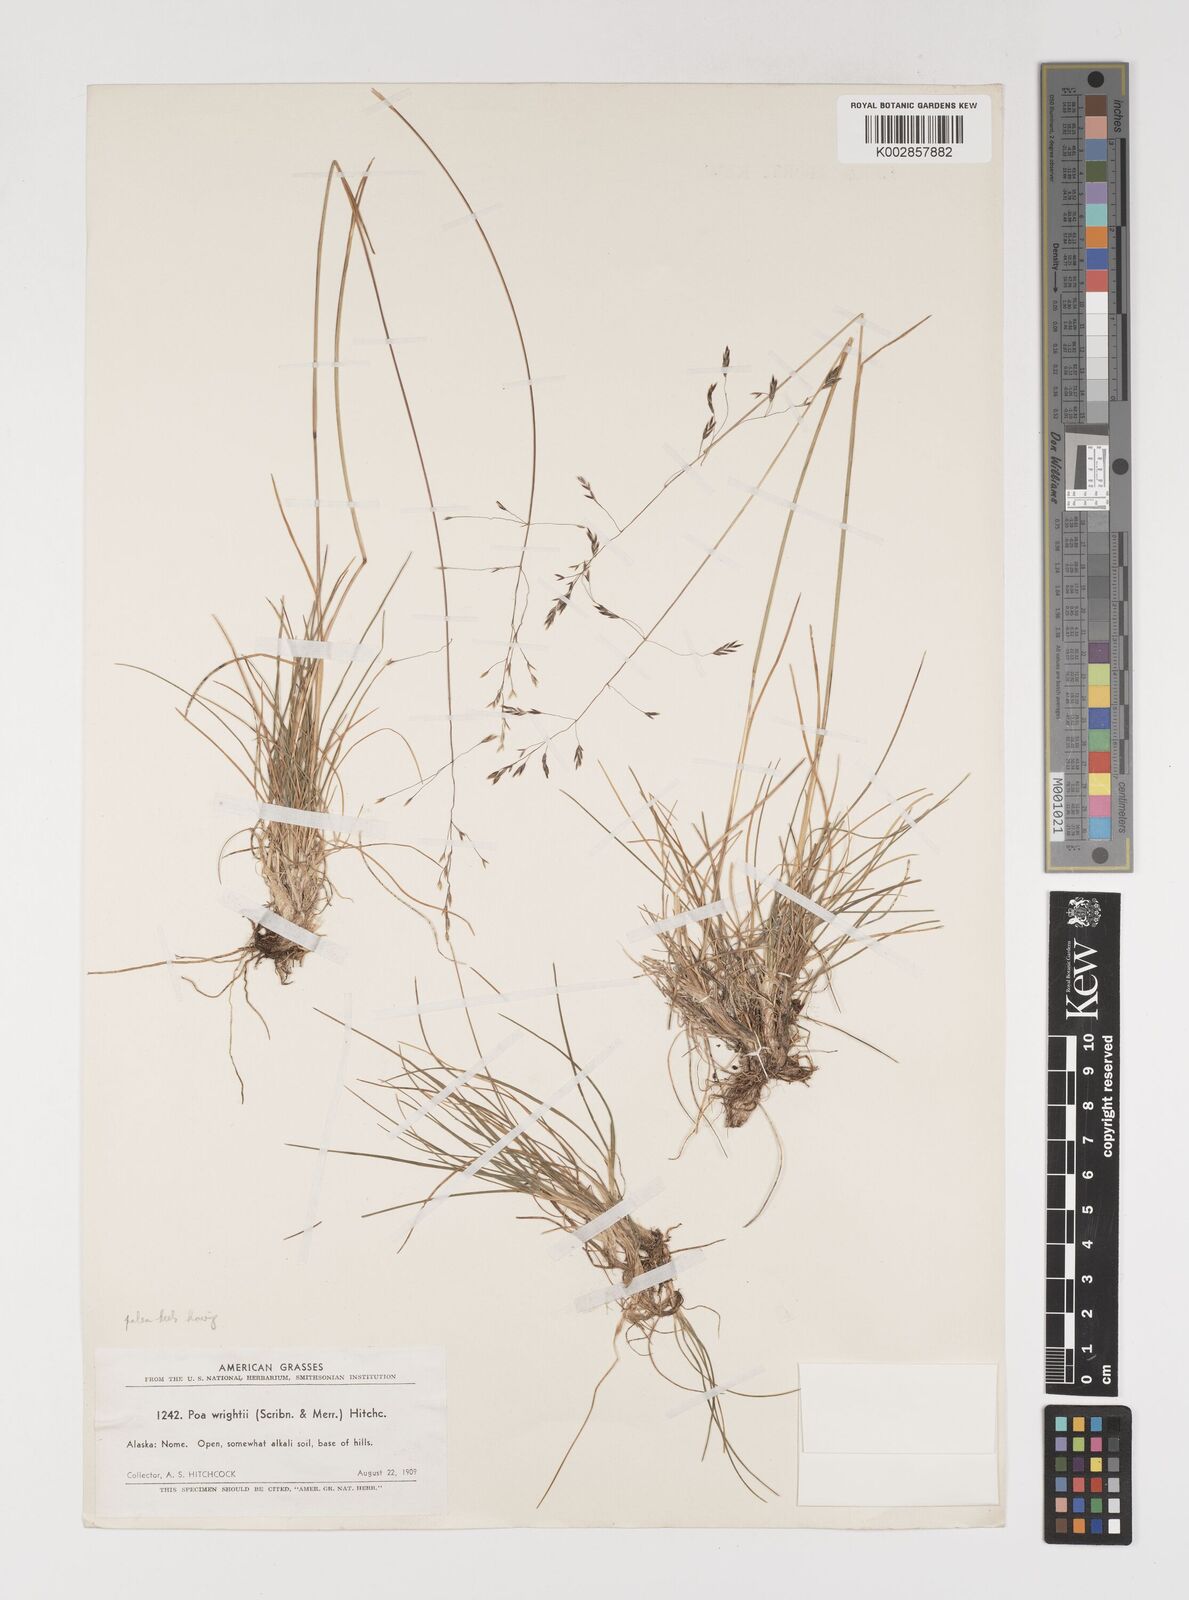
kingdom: Plantae
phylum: Tracheophyta
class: Liliopsida
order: Poales
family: Poaceae
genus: Puccinellia
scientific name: Puccinellia wrightii
